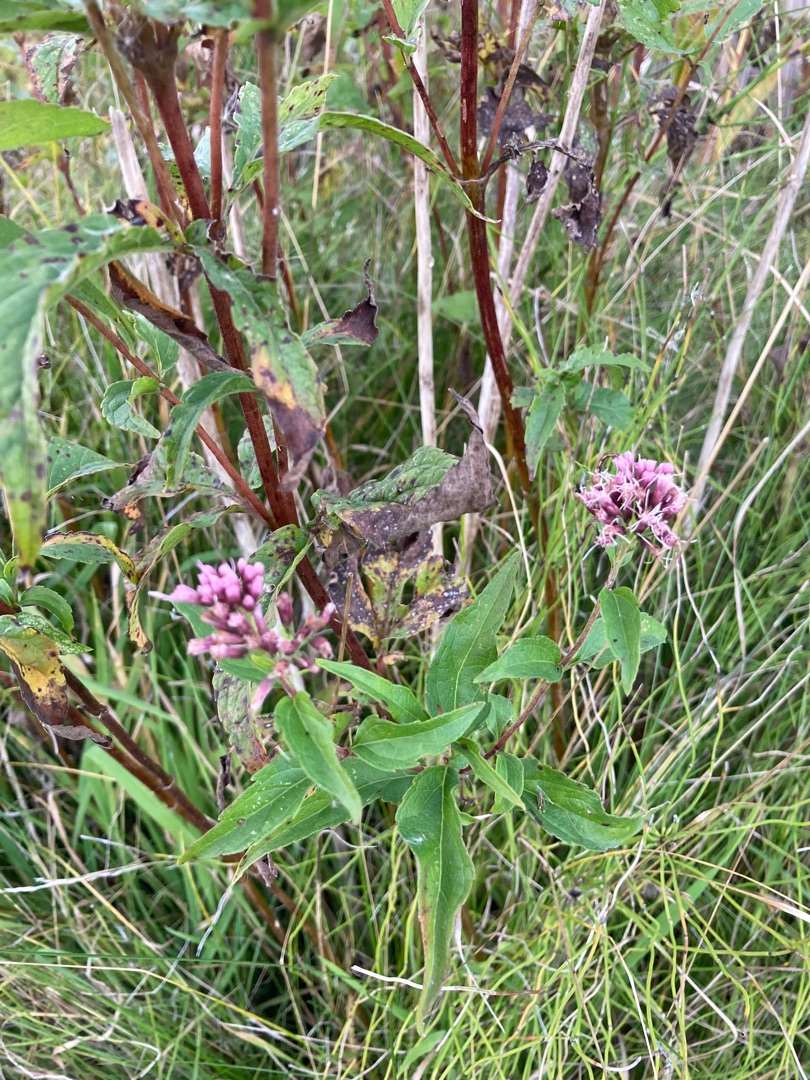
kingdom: Plantae
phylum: Tracheophyta
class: Magnoliopsida
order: Asterales
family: Asteraceae
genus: Eupatorium
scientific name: Eupatorium cannabinum
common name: Hjortetrøst
